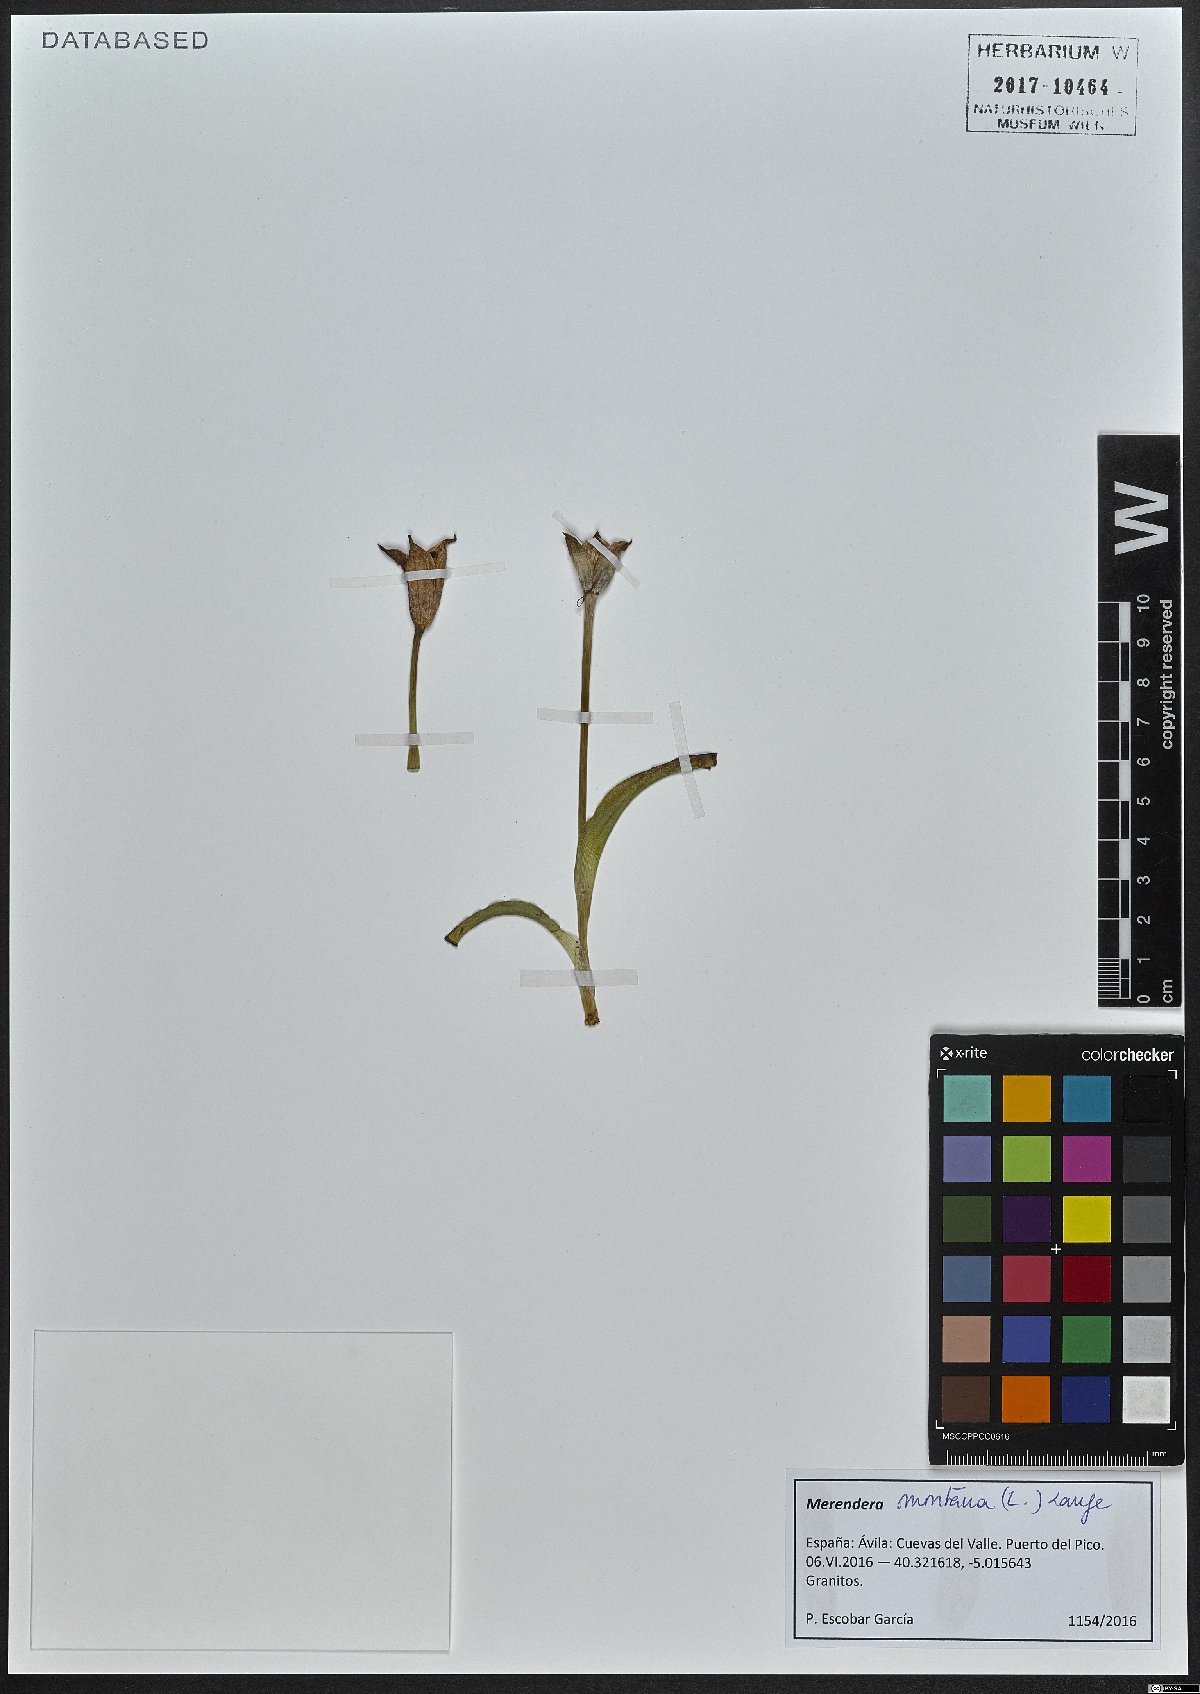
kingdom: Plantae
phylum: Tracheophyta
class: Liliopsida
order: Liliales
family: Colchicaceae
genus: Colchicum
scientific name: Colchicum montanum
